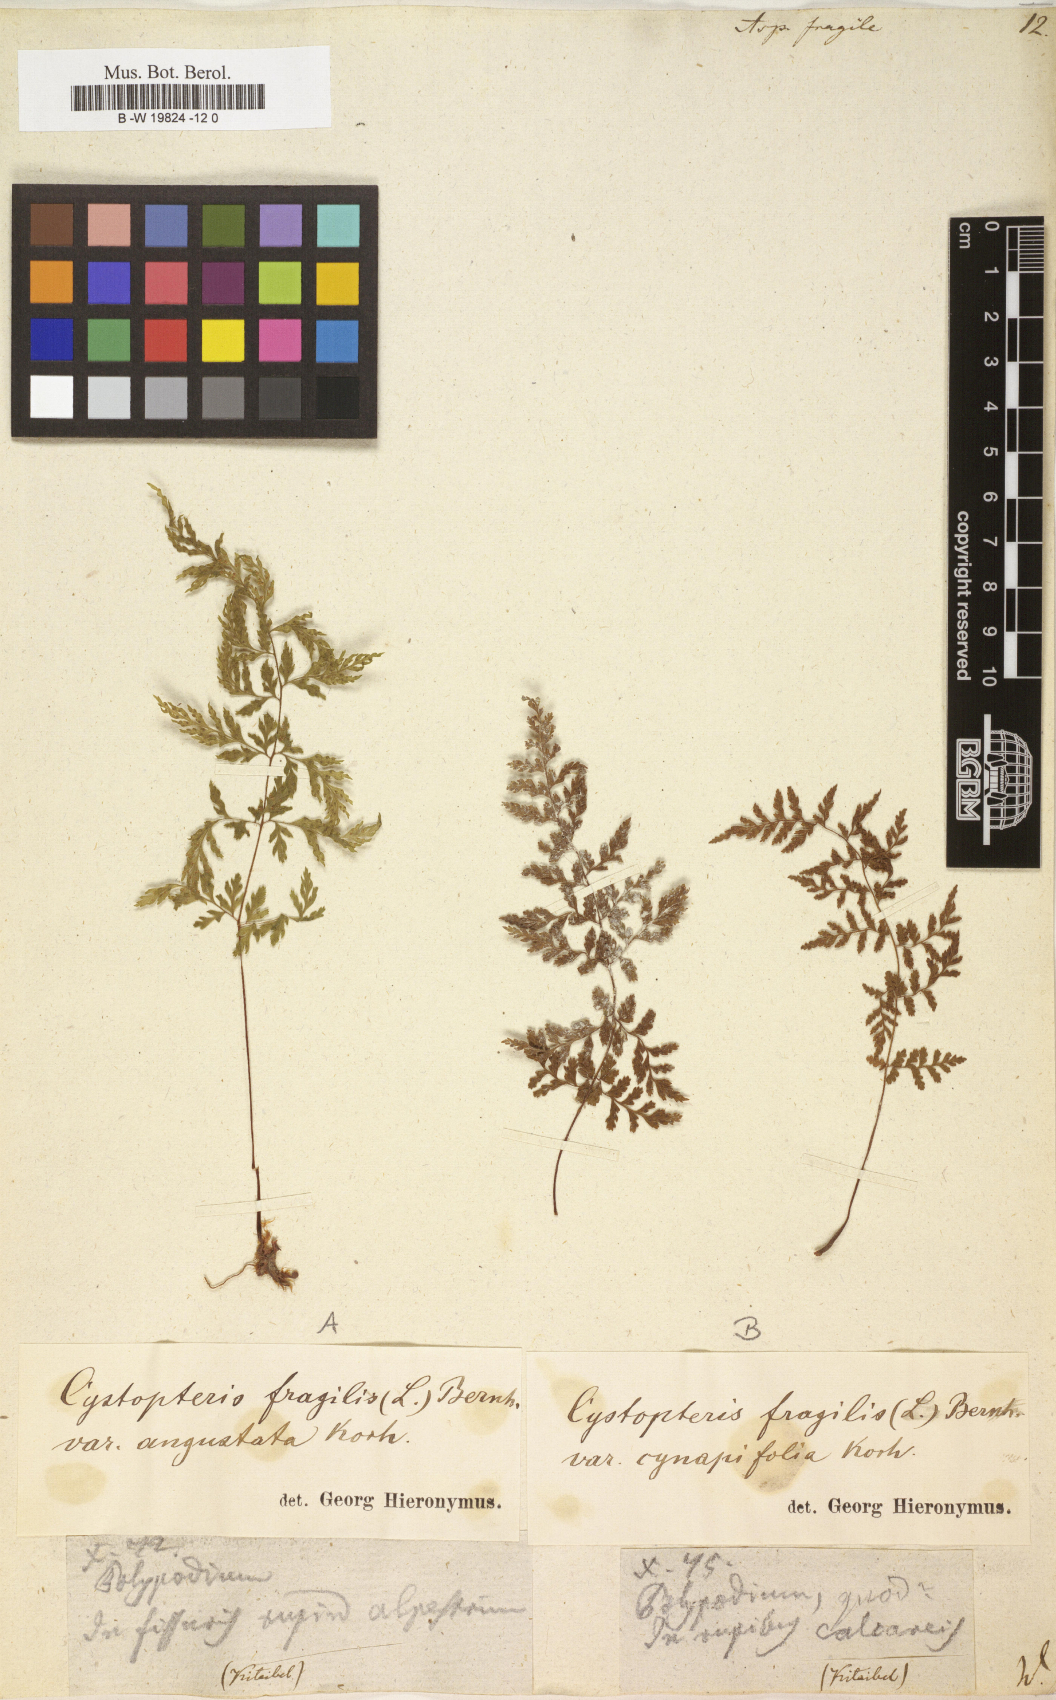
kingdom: Plantae
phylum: Tracheophyta
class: Polypodiopsida
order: Polypodiales
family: Cystopteridaceae
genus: Cystopteris
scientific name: Cystopteris fragilis
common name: Brittle bladder fern
